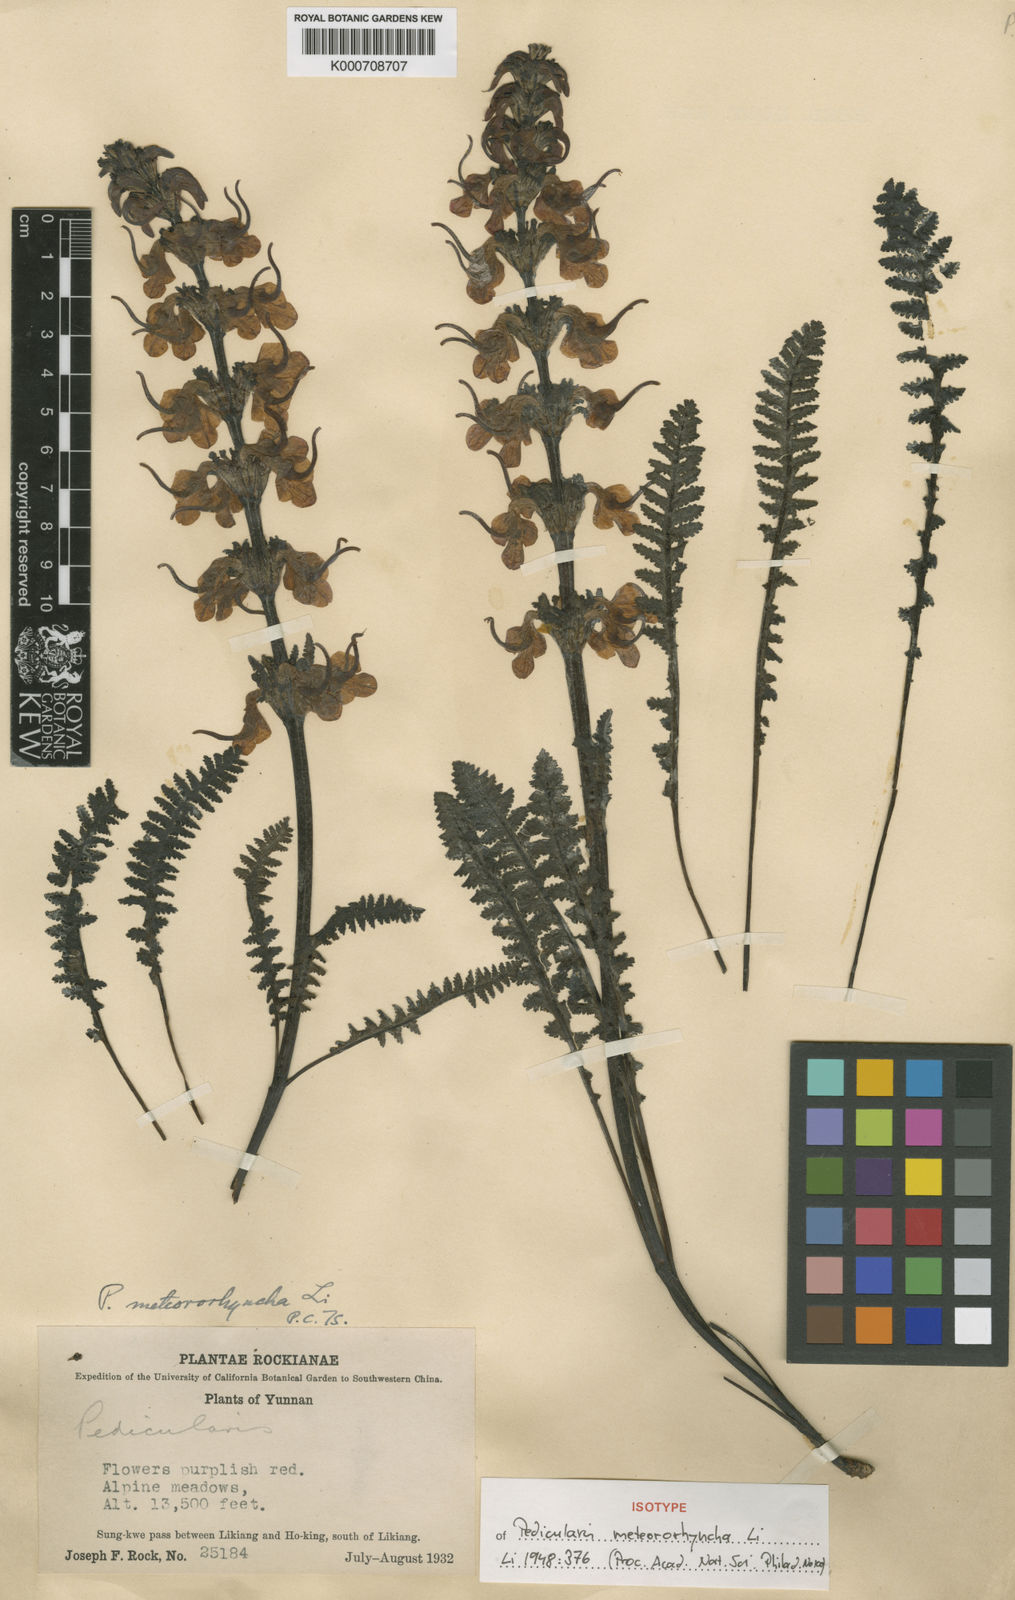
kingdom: Plantae
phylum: Tracheophyta
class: Magnoliopsida
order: Lamiales
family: Orobanchaceae
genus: Pedicularis
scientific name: Pedicularis meteororhyncha
